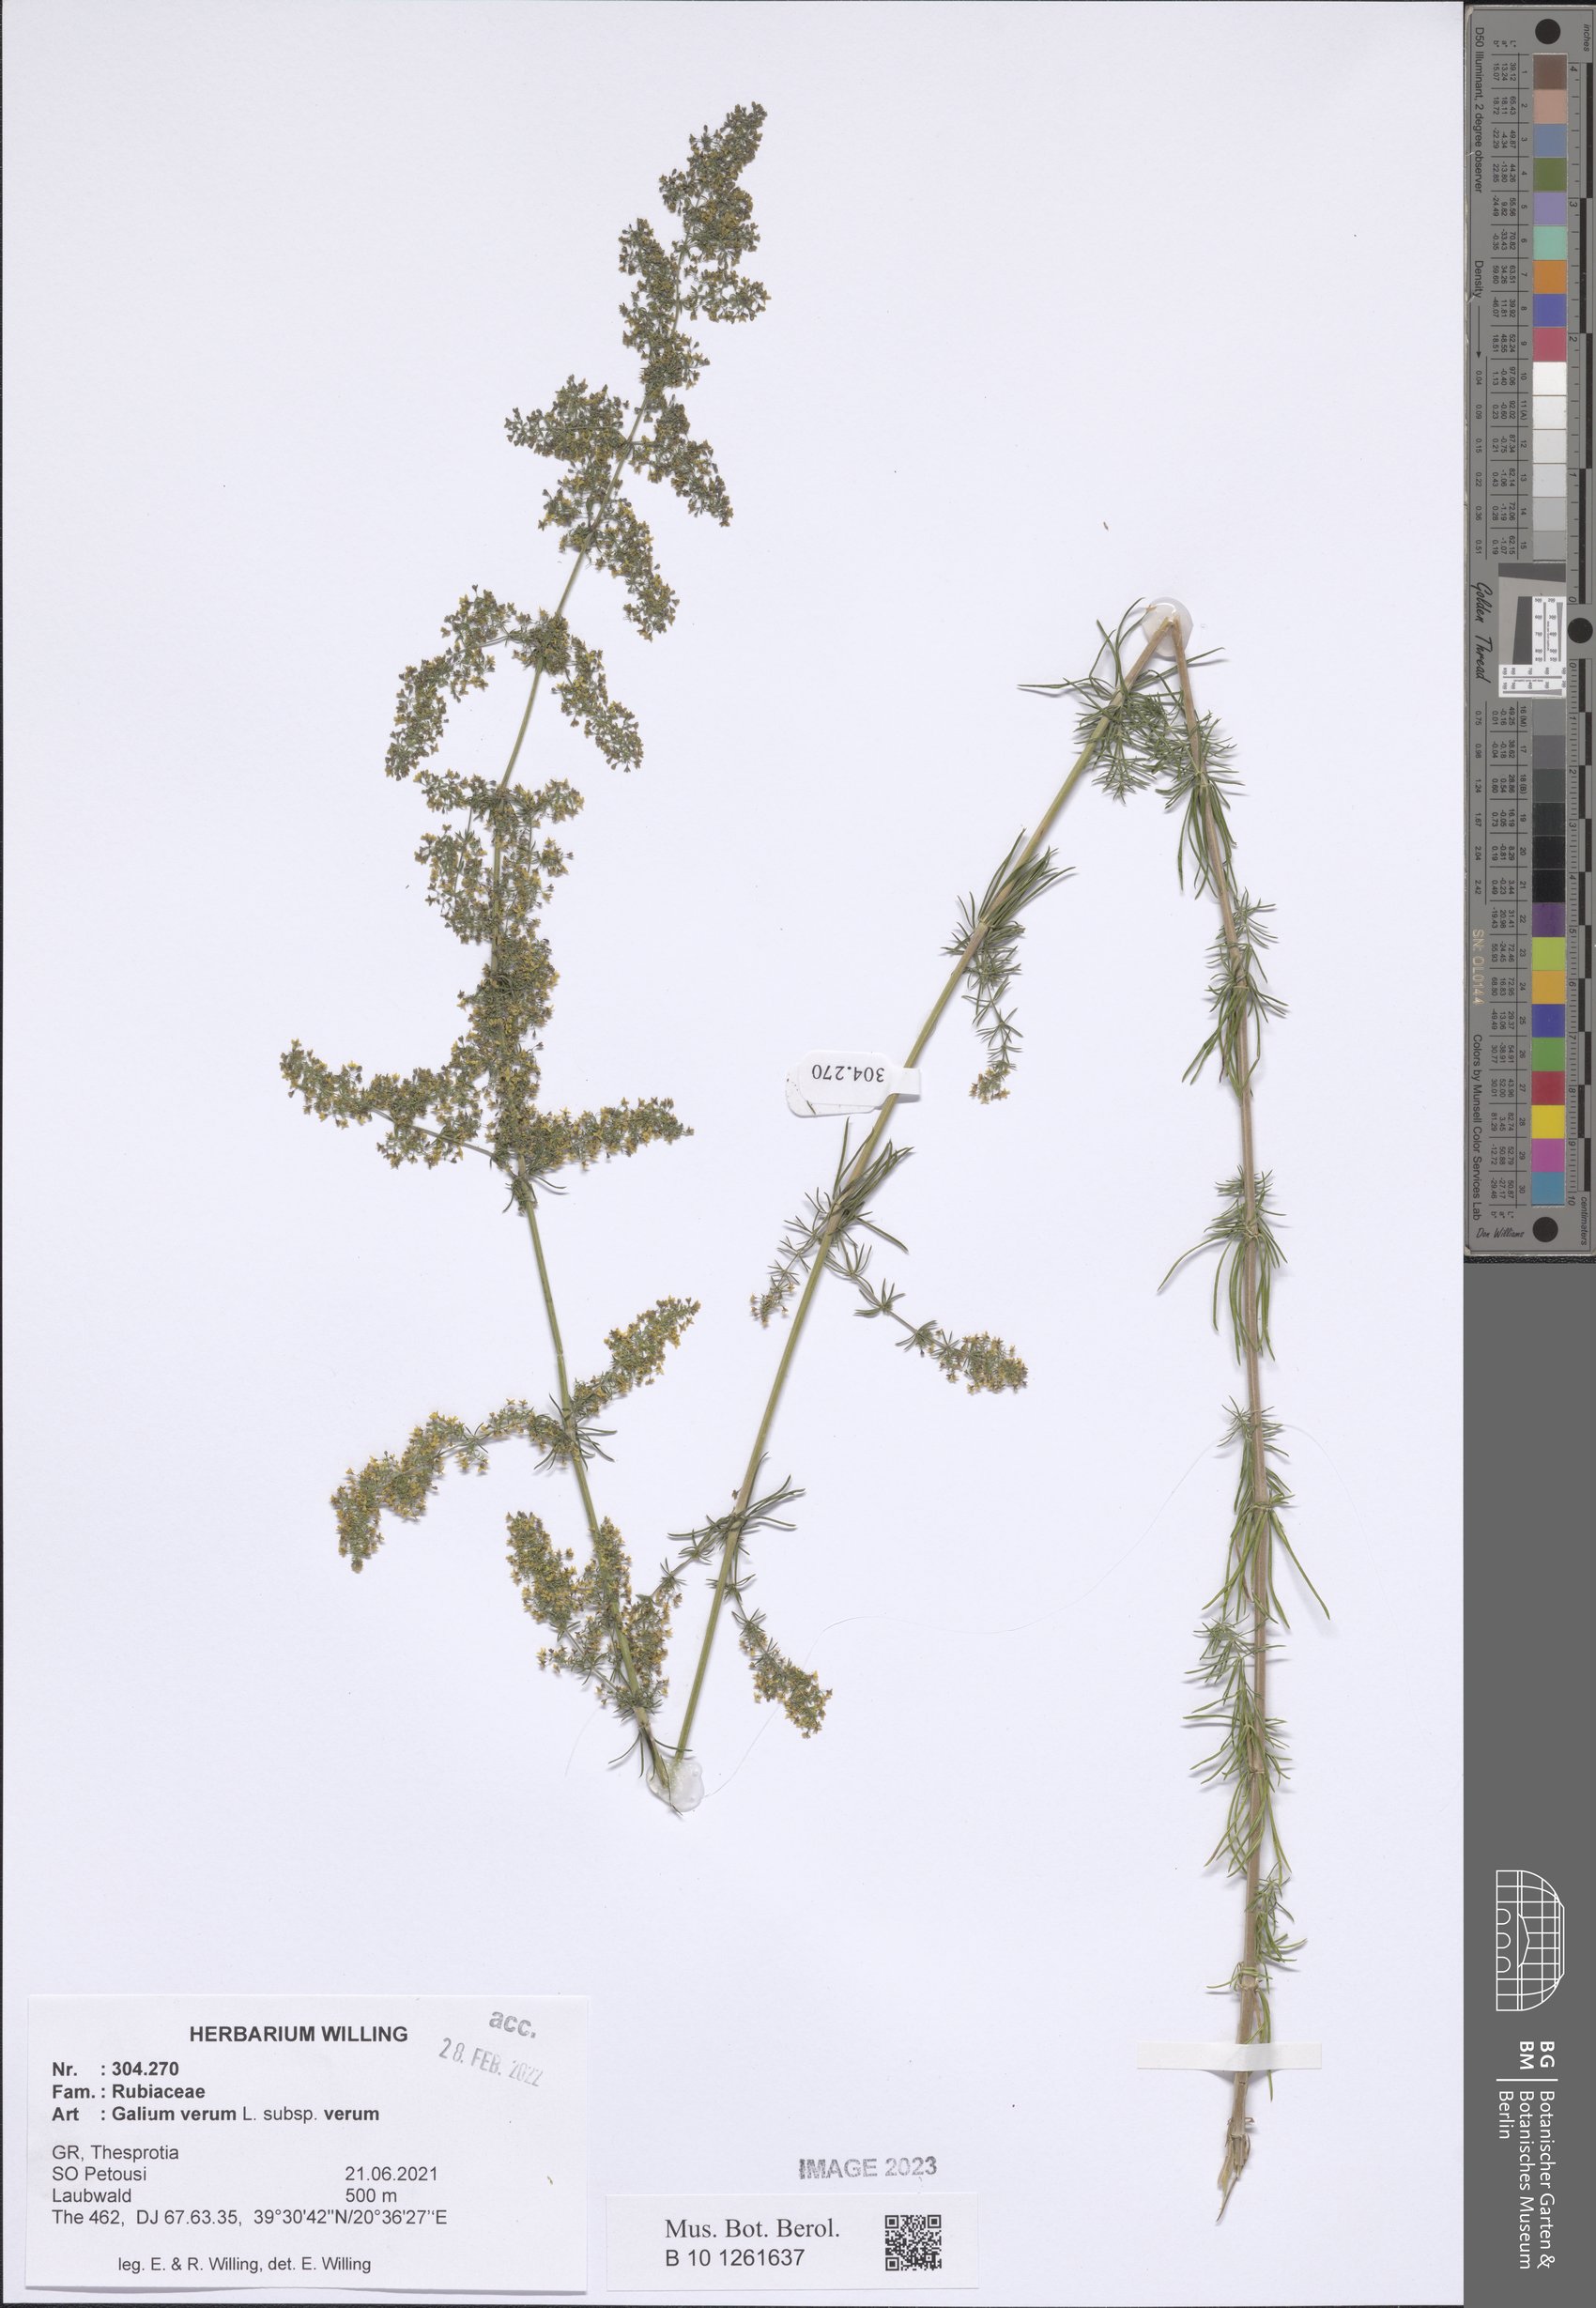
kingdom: Plantae
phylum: Tracheophyta
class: Magnoliopsida
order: Gentianales
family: Rubiaceae
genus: Galium
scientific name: Galium verum
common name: Lady's bedstraw
